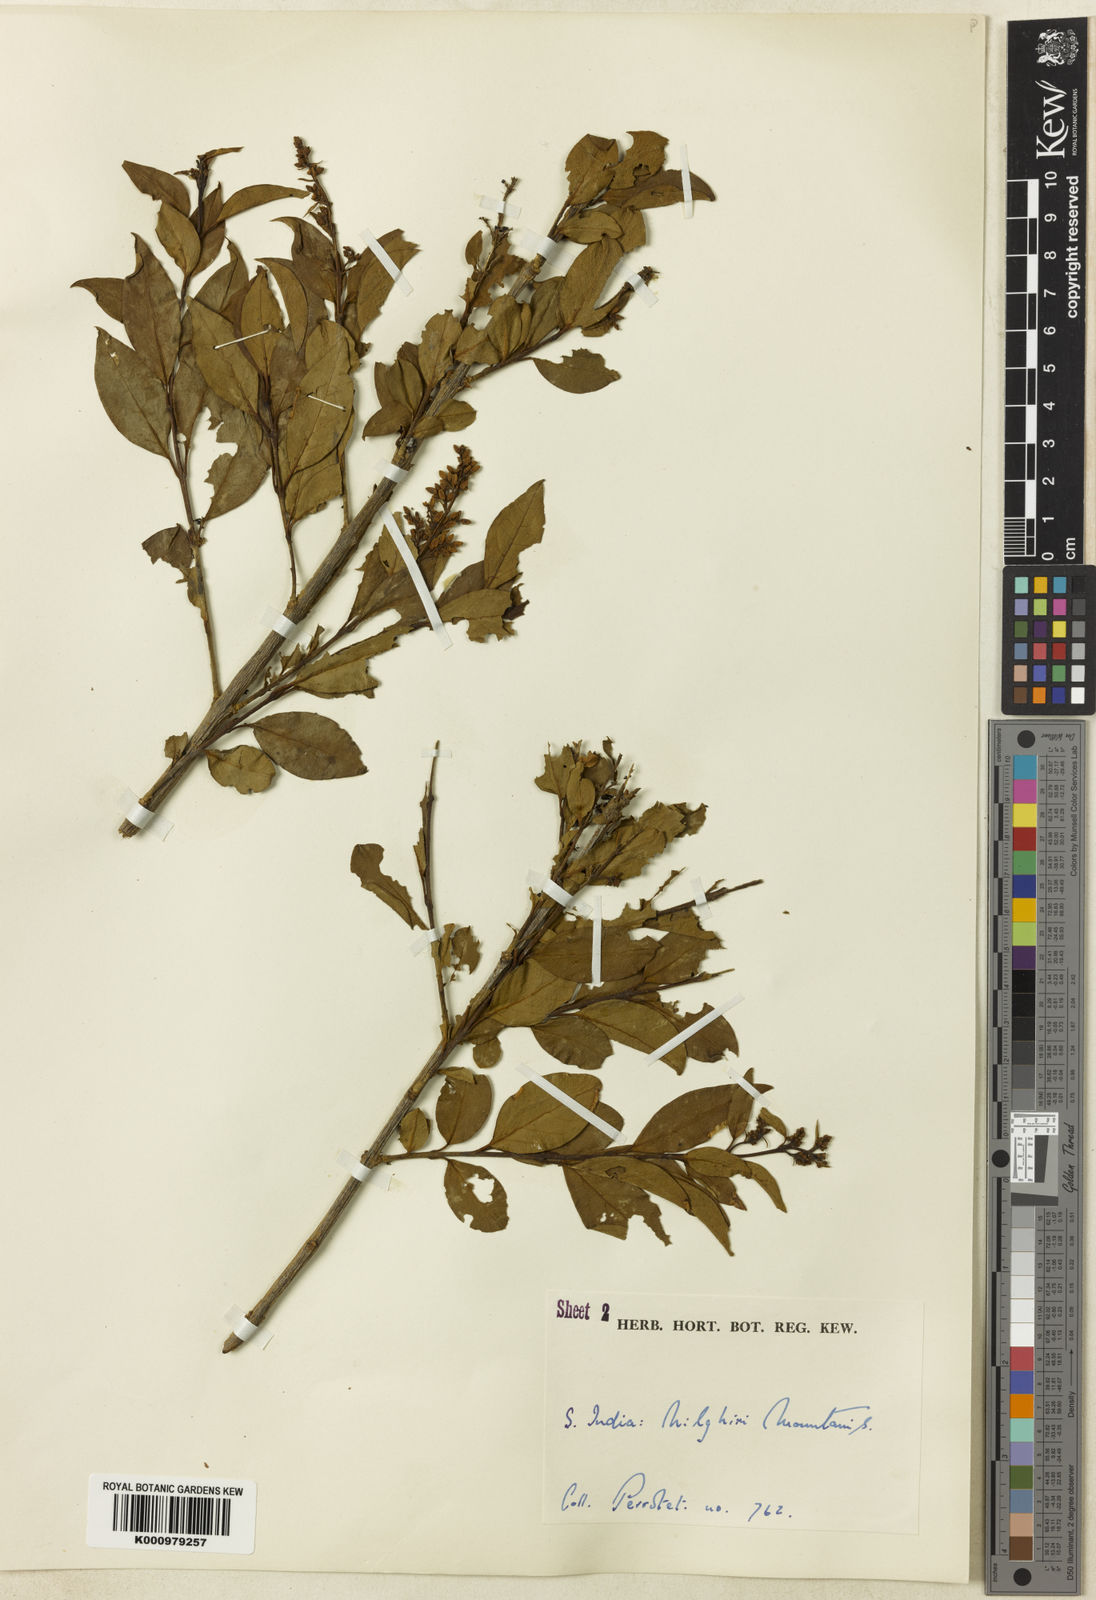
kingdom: Plantae
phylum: Tracheophyta
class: Magnoliopsida
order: Lamiales
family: Oleaceae
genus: Ligustrum
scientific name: Ligustrum robustum
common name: Tree privet
